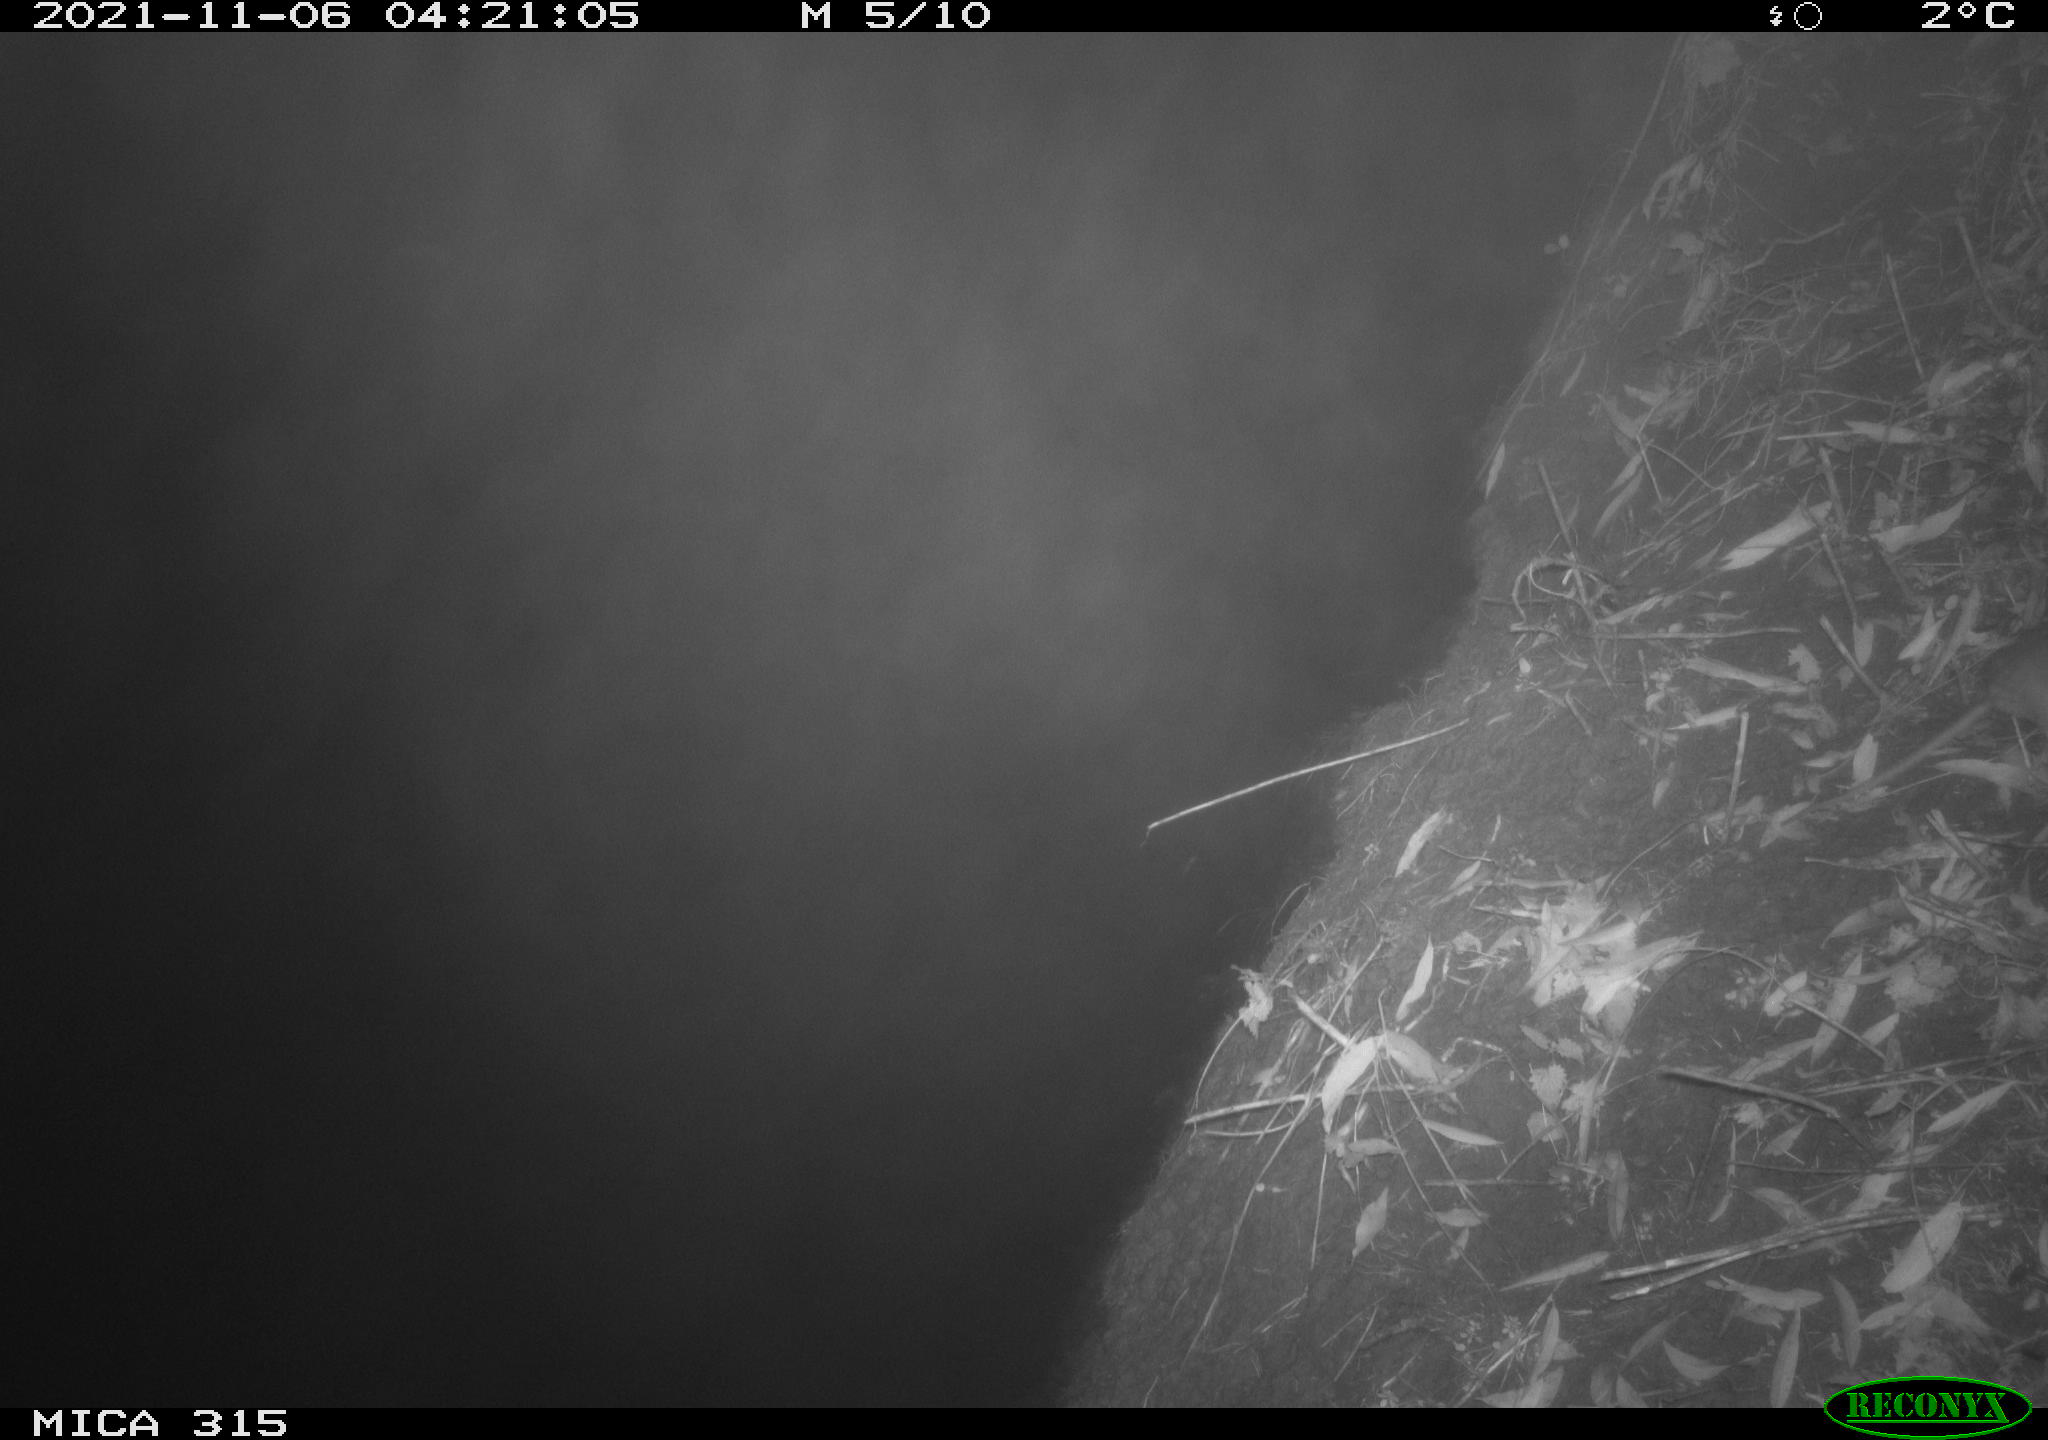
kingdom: Animalia
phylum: Chordata
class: Mammalia
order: Rodentia
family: Muridae
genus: Rattus
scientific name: Rattus norvegicus
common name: Brown rat
